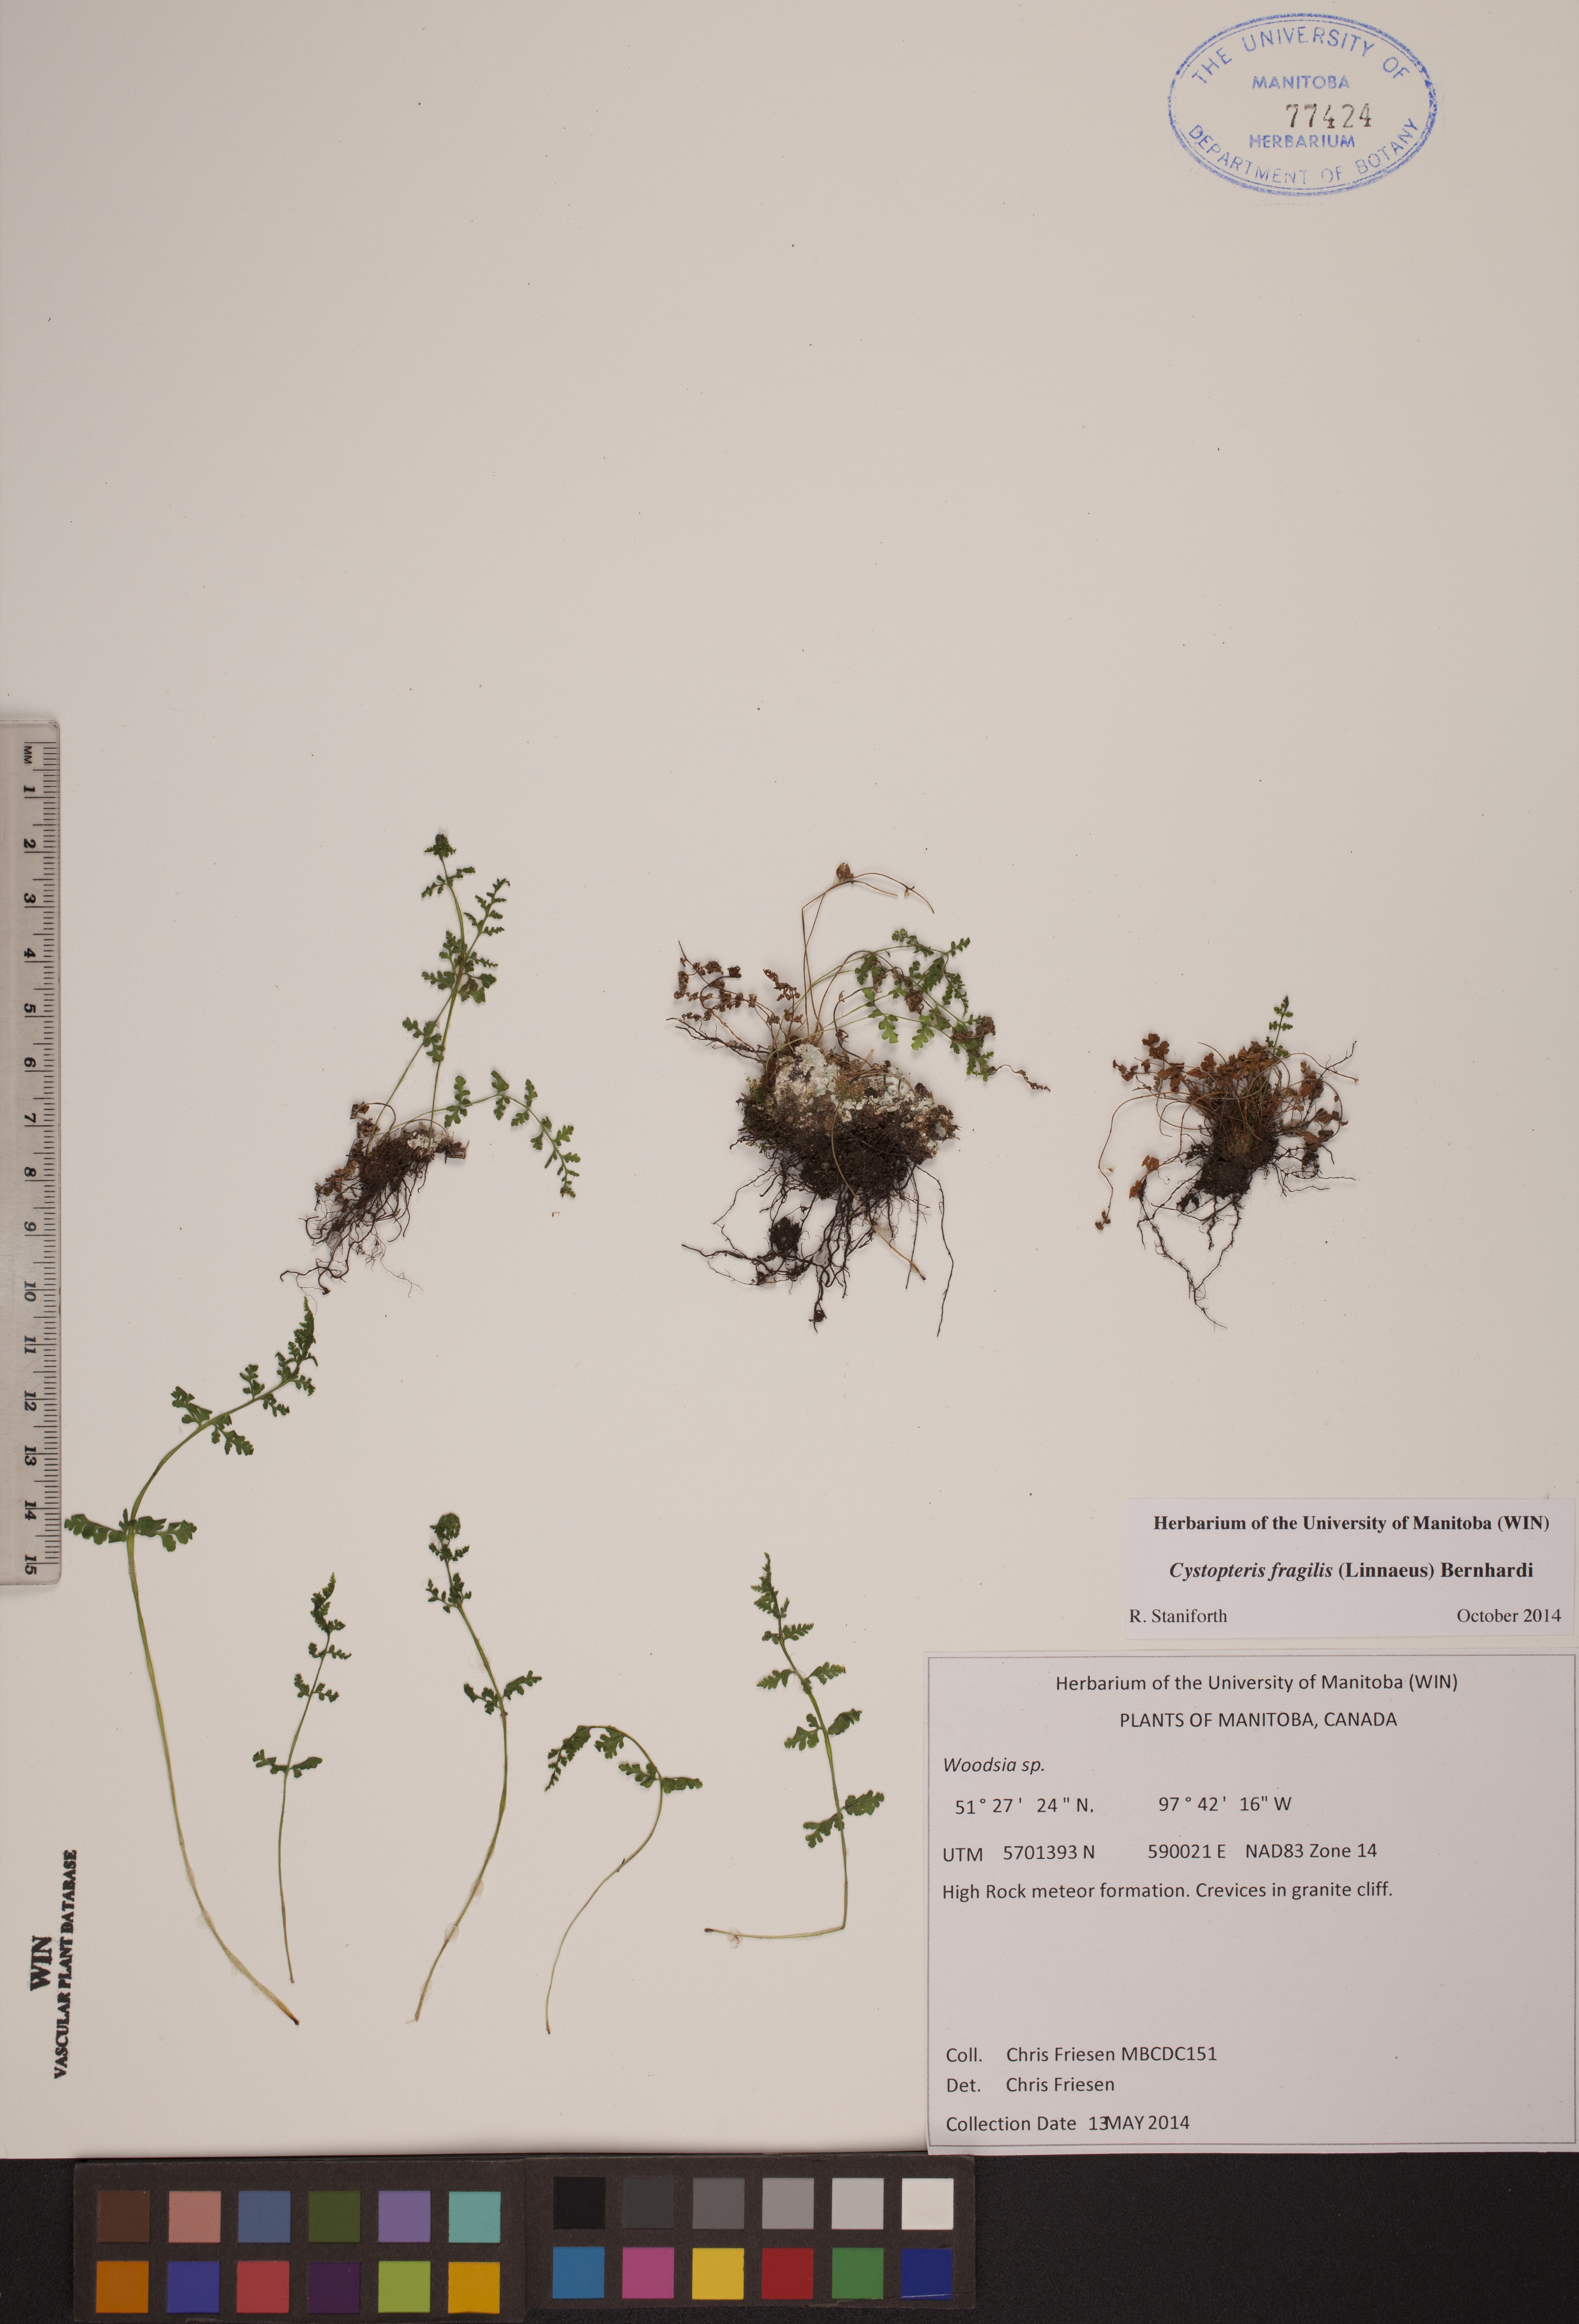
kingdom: Plantae
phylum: Tracheophyta
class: Polypodiopsida
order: Polypodiales
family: Cystopteridaceae
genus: Cystopteris
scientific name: Cystopteris fragilis
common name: Brittle bladder fern
